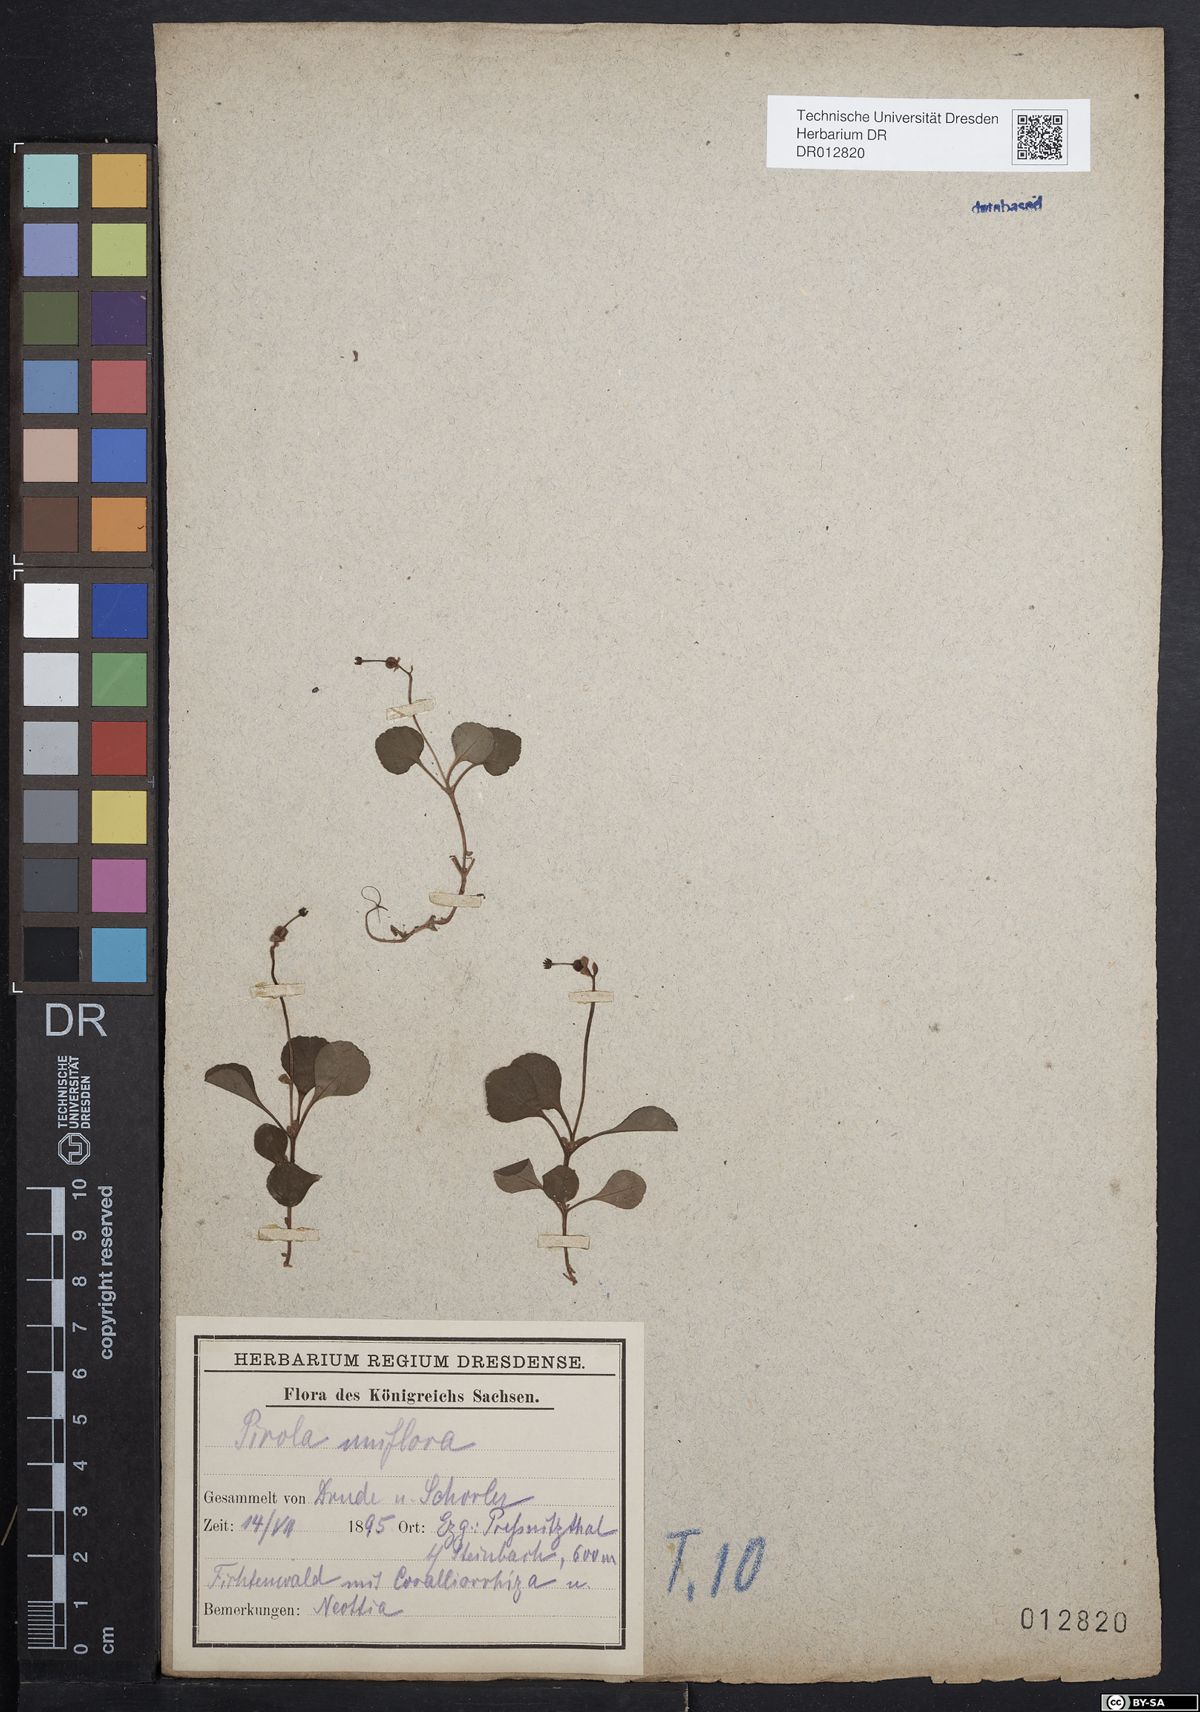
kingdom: Plantae
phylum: Tracheophyta
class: Magnoliopsida
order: Ericales
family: Ericaceae
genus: Moneses
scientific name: Moneses uniflora
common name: One-flowered wintergreen
